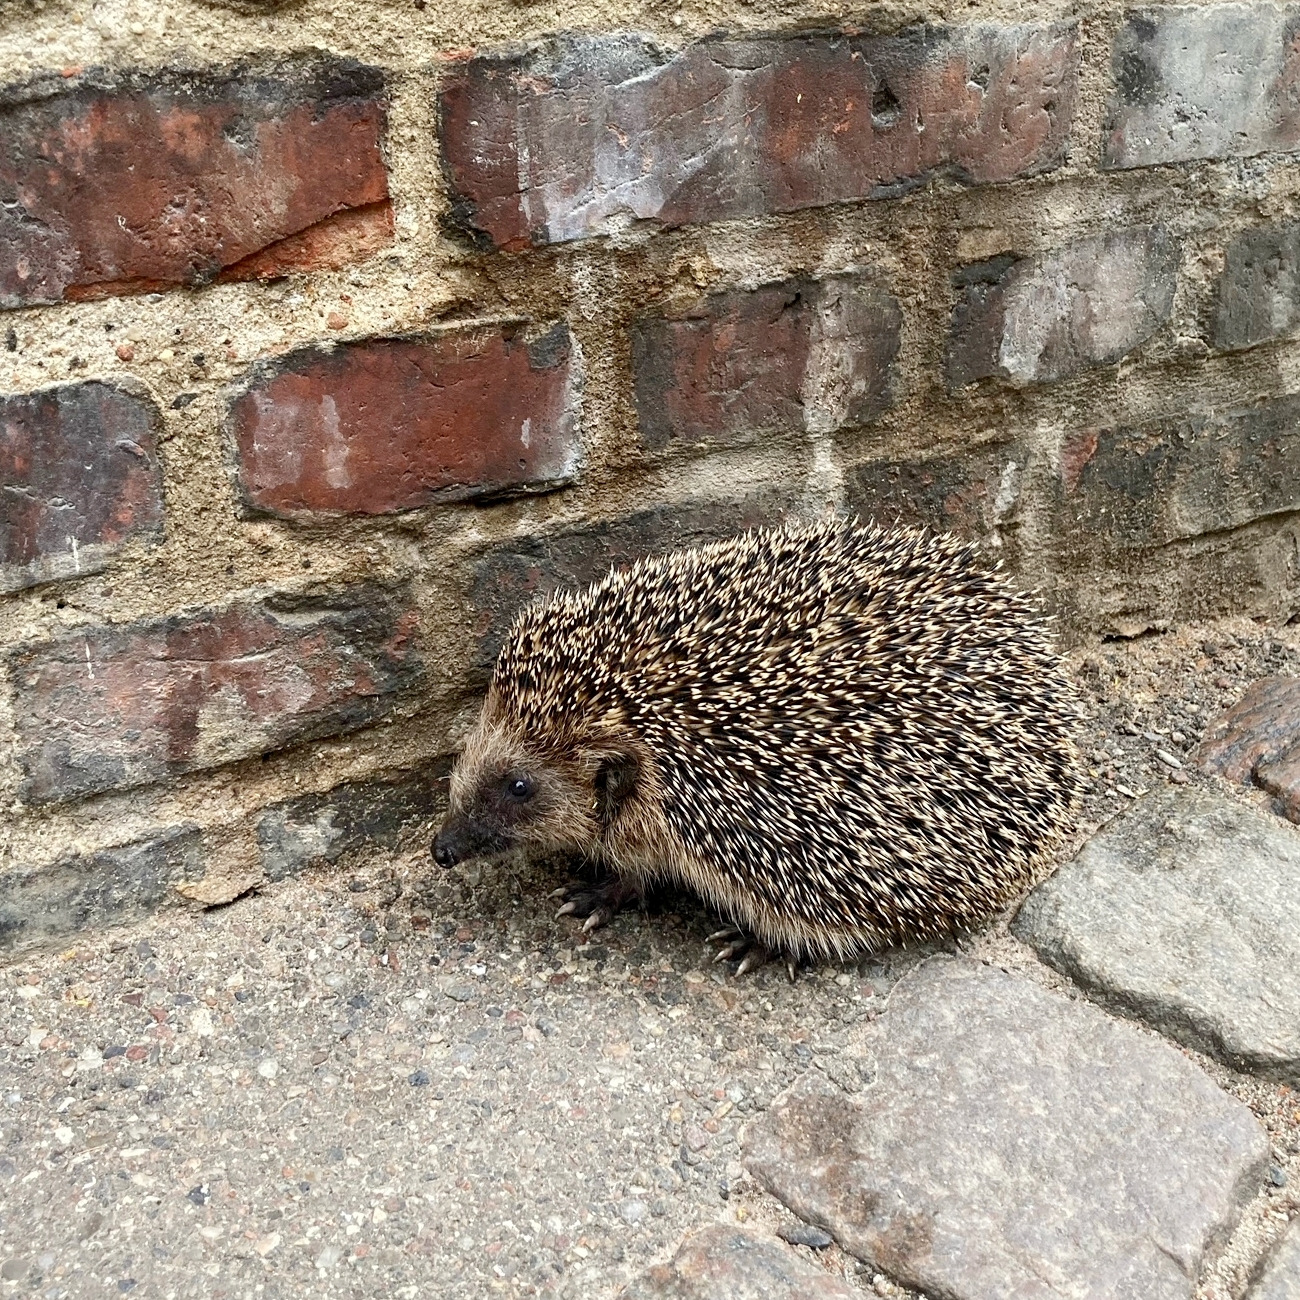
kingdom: Animalia
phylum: Chordata
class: Mammalia
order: Erinaceomorpha
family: Erinaceidae
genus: Erinaceus
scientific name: Erinaceus europaeus
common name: Pindsvin
